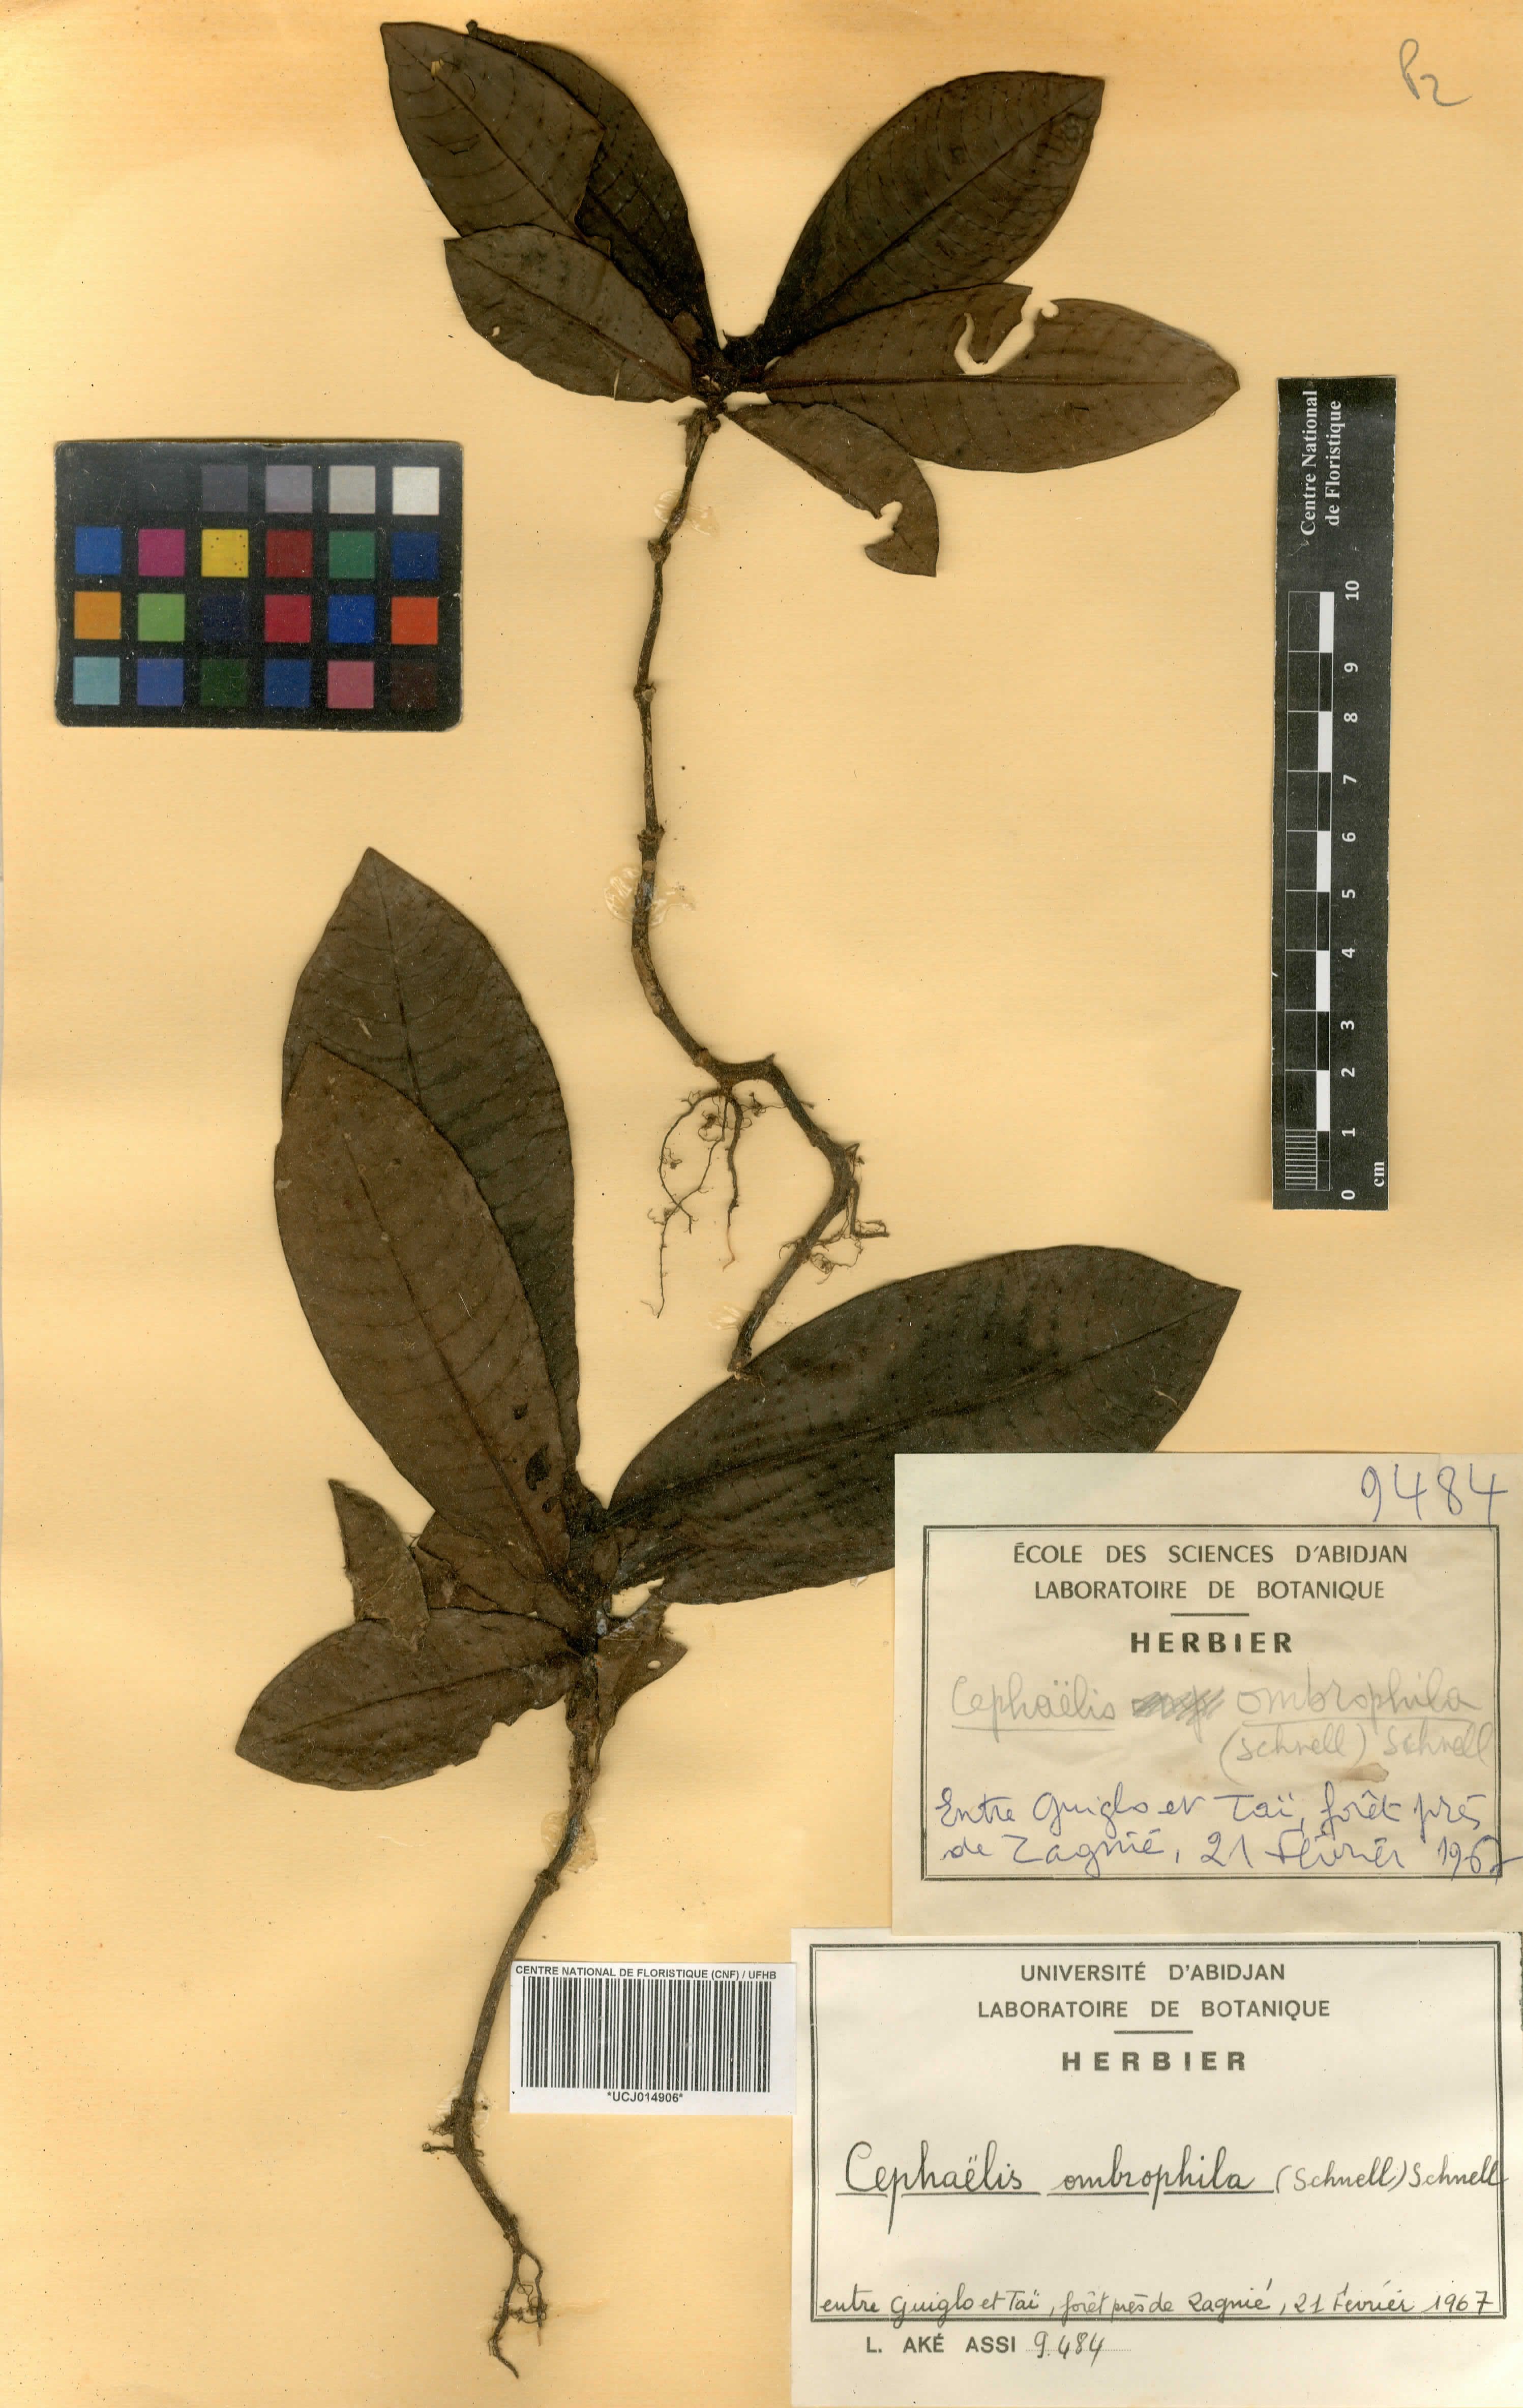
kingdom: Plantae
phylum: Tracheophyta
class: Magnoliopsida
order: Gentianales
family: Rubiaceae
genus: Psychotria
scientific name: Psychotria ombrophila
